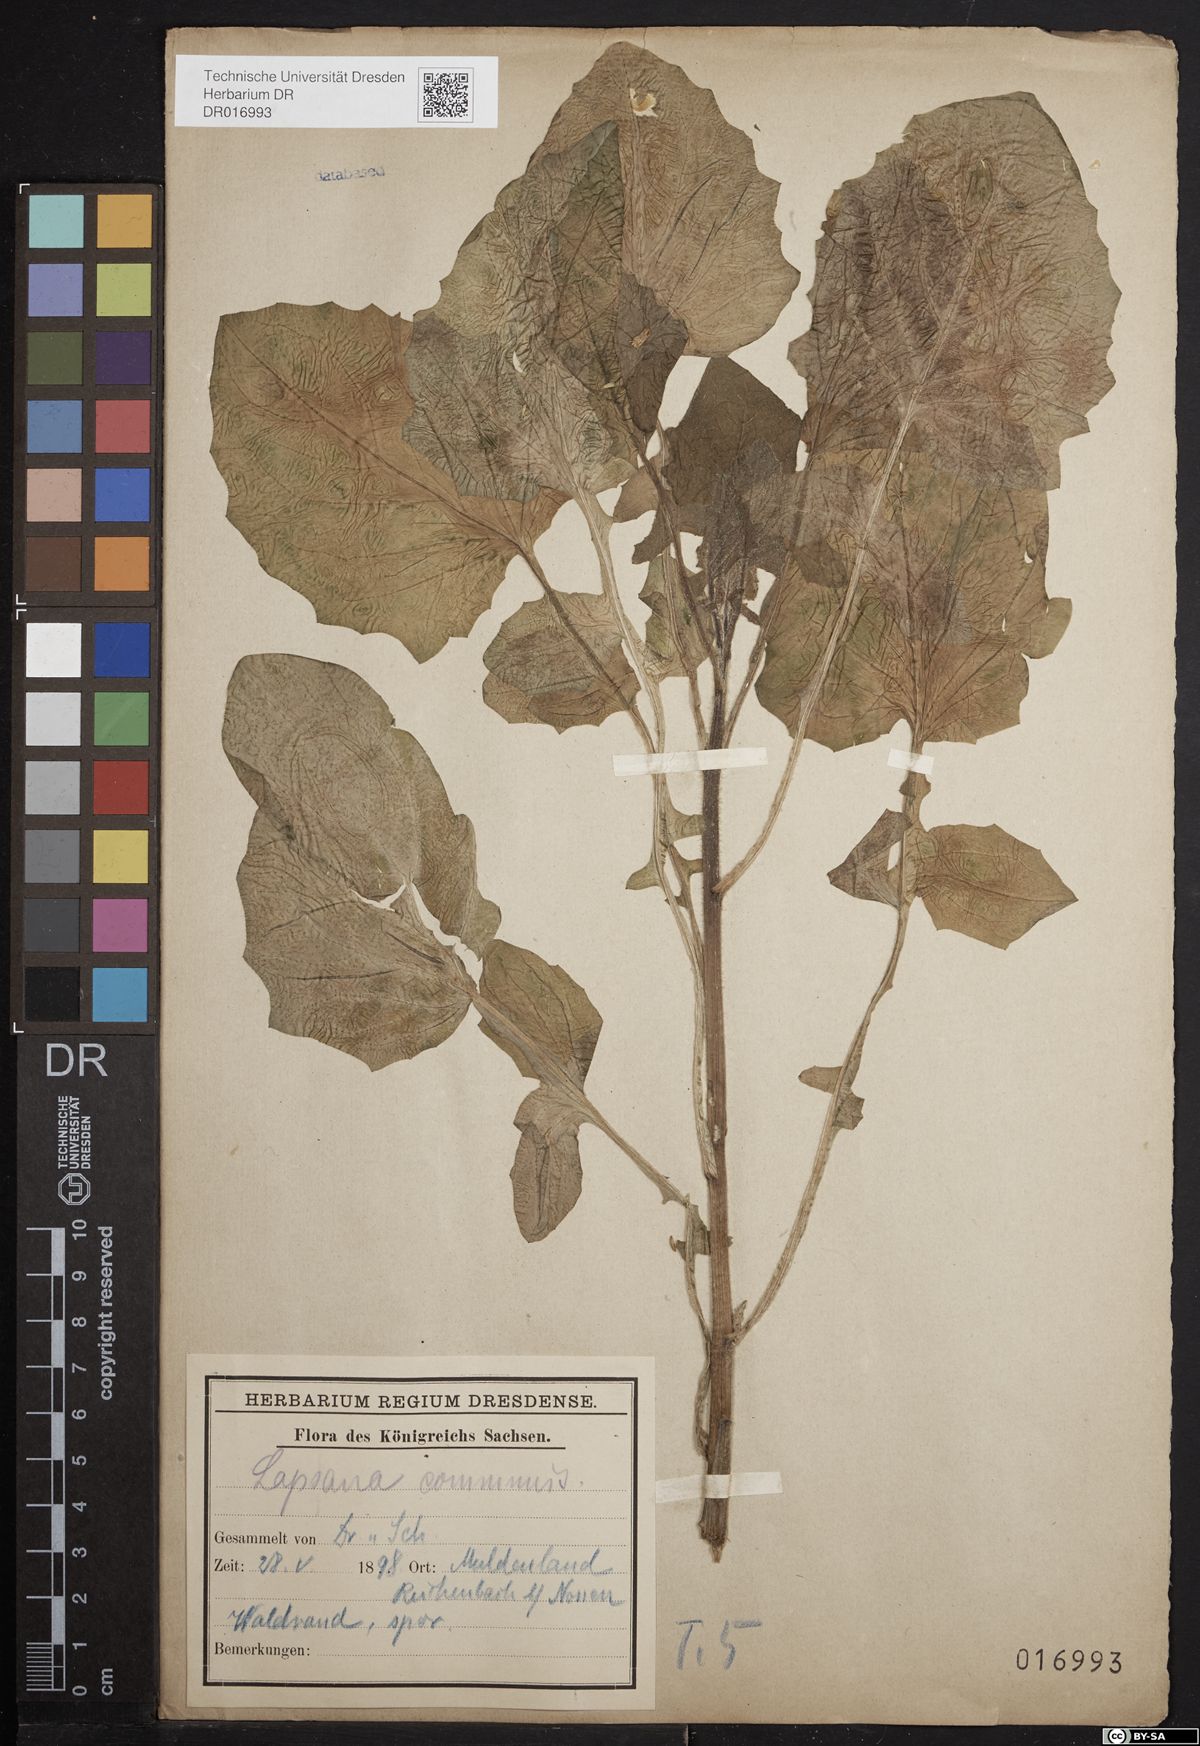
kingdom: Plantae
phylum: Tracheophyta
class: Magnoliopsida
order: Asterales
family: Asteraceae
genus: Lapsana
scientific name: Lapsana communis
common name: Nipplewort
